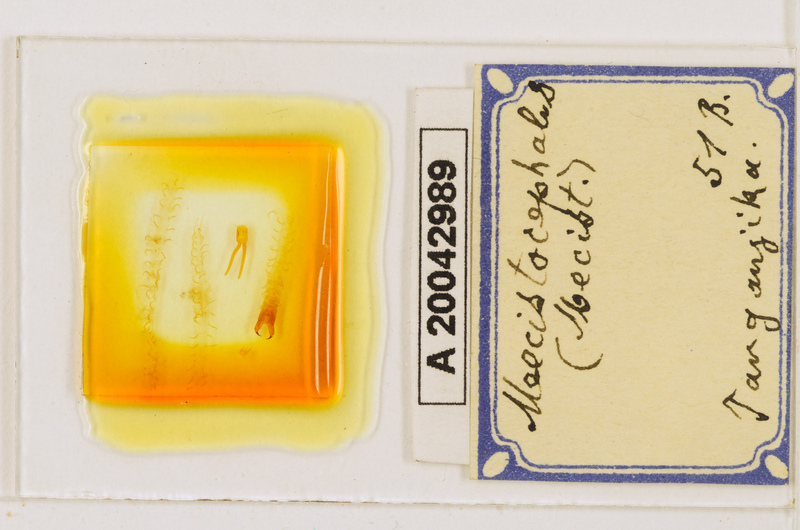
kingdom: Animalia
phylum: Arthropoda
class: Chilopoda
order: Geophilomorpha
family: Mecistocephalidae
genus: Mecistocephalus
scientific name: Mecistocephalus
